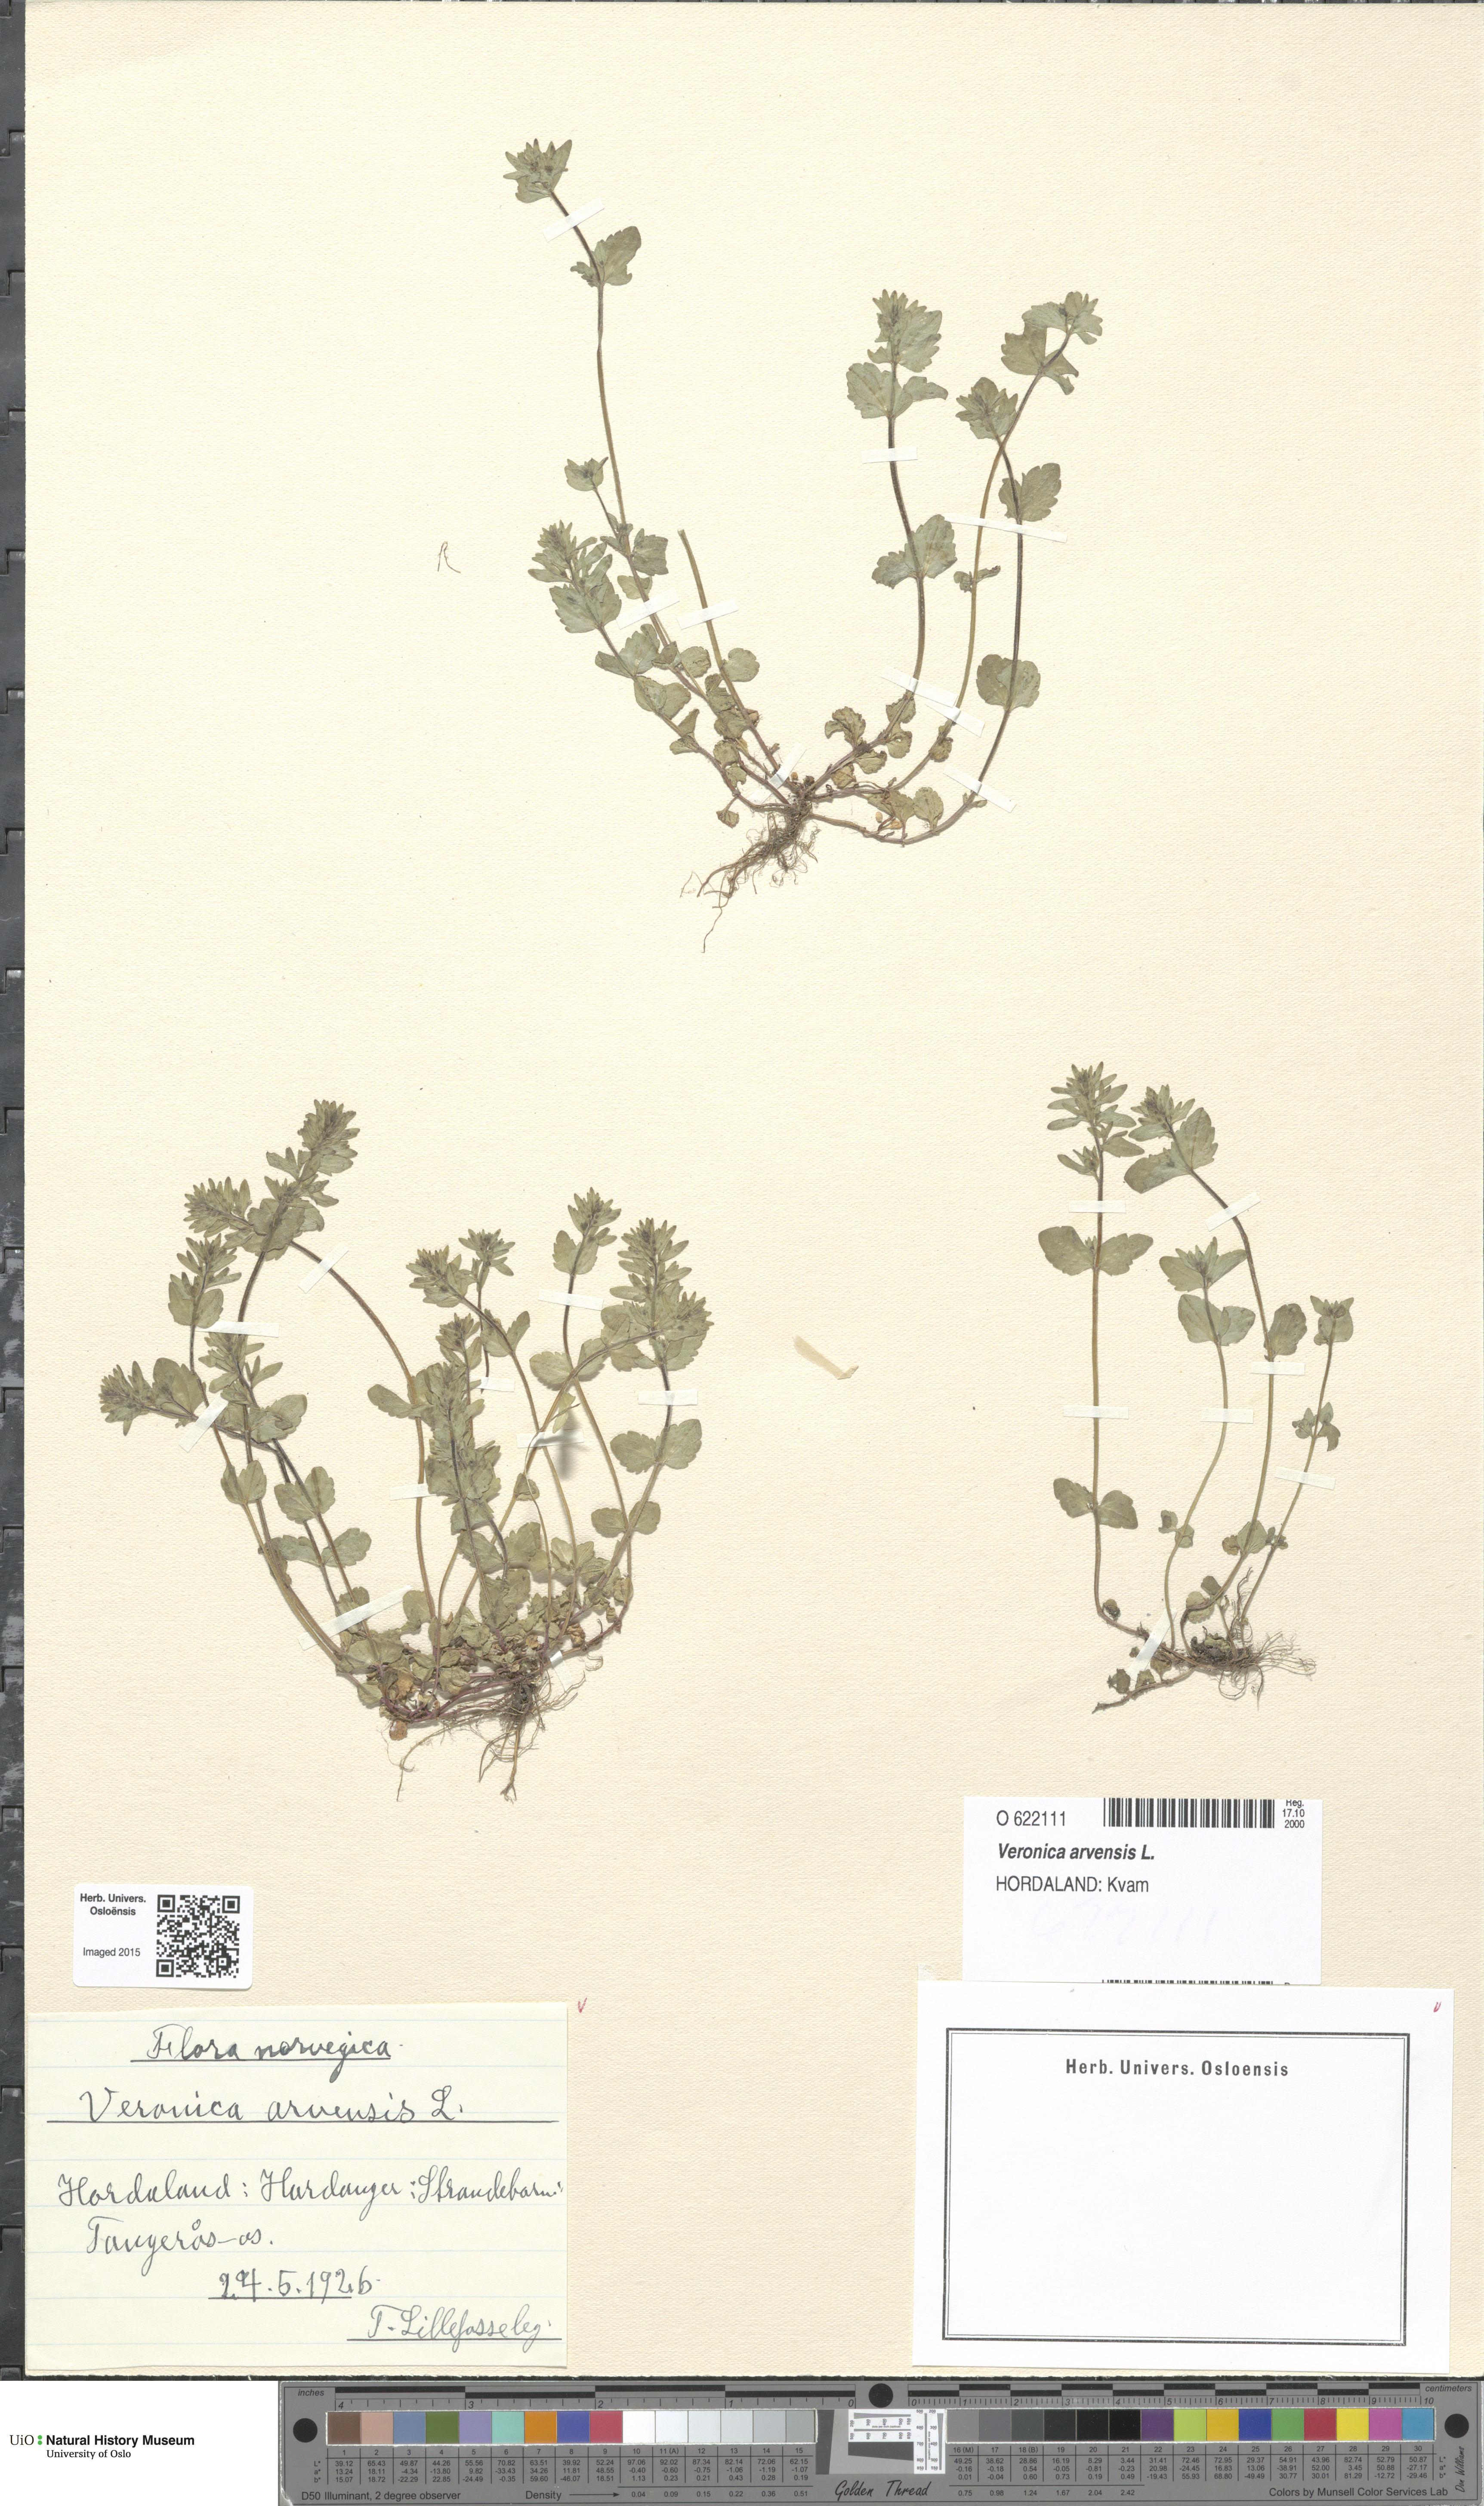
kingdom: Plantae
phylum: Tracheophyta
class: Magnoliopsida
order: Lamiales
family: Plantaginaceae
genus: Veronica
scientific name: Veronica arvensis
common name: Corn speedwell
